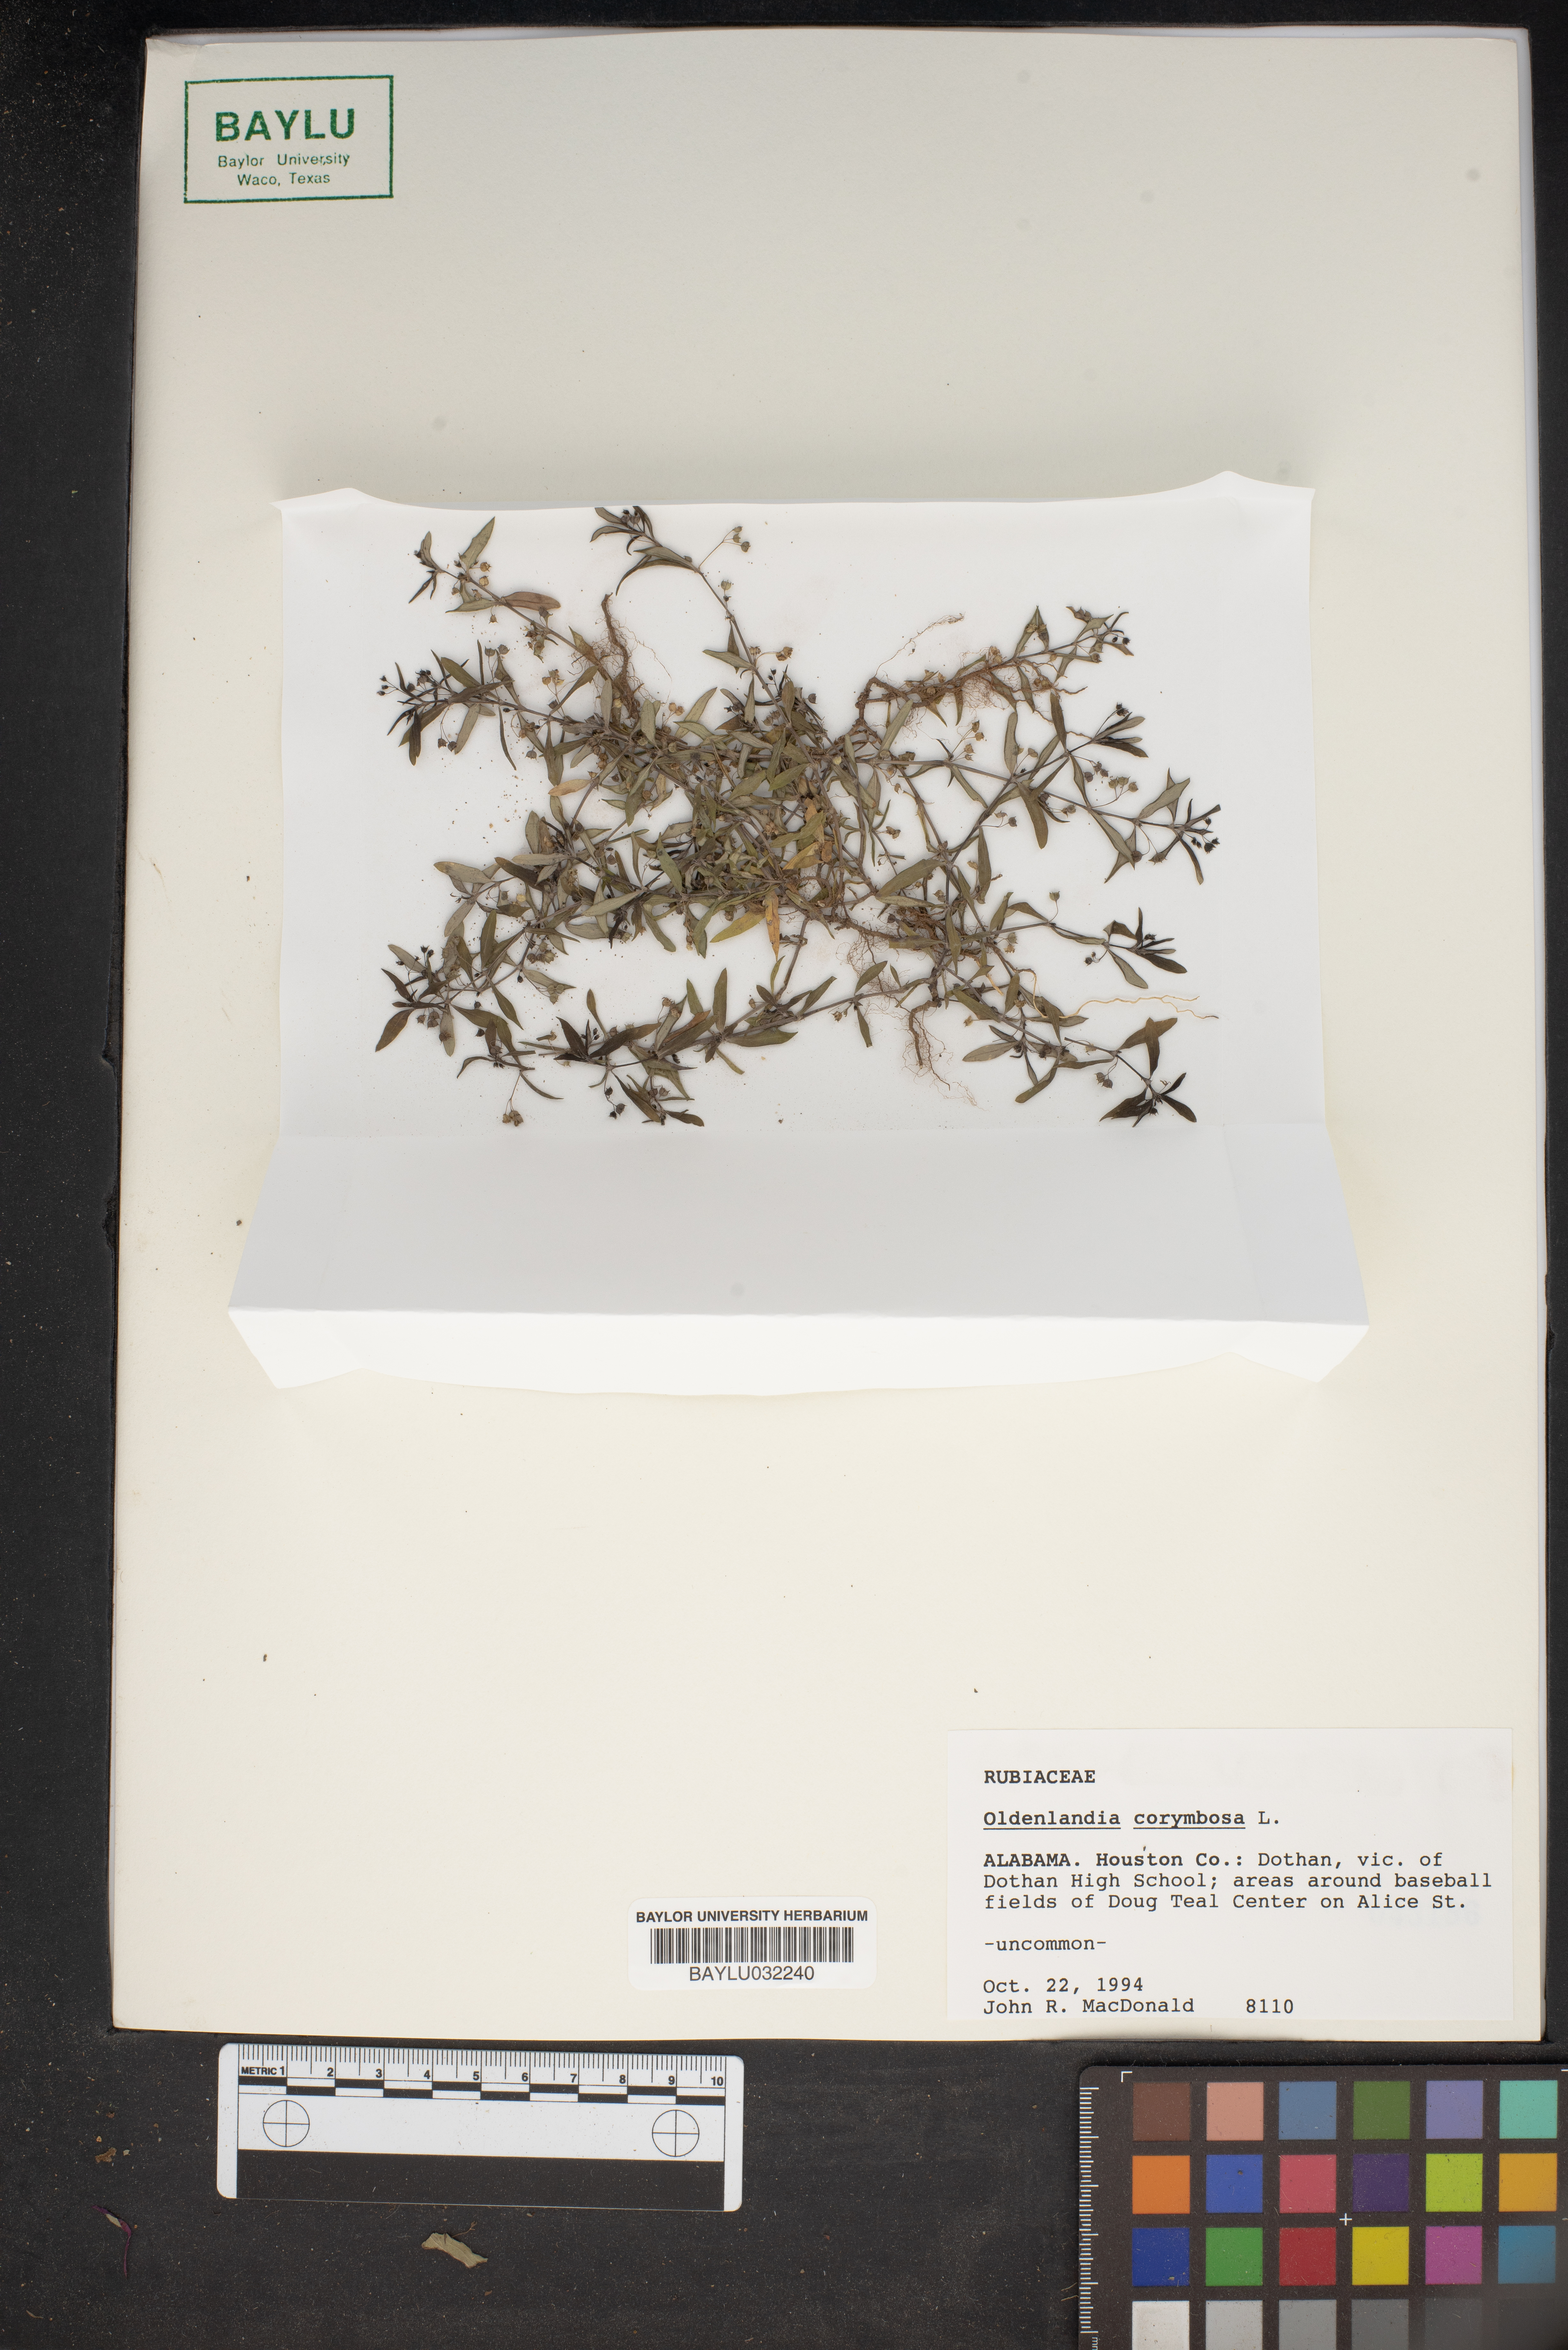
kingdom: Plantae
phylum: Tracheophyta
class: Magnoliopsida
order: Gentianales
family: Rubiaceae
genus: Oldenlandia
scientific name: Oldenlandia corymbosa
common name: Flat-top mille graines
